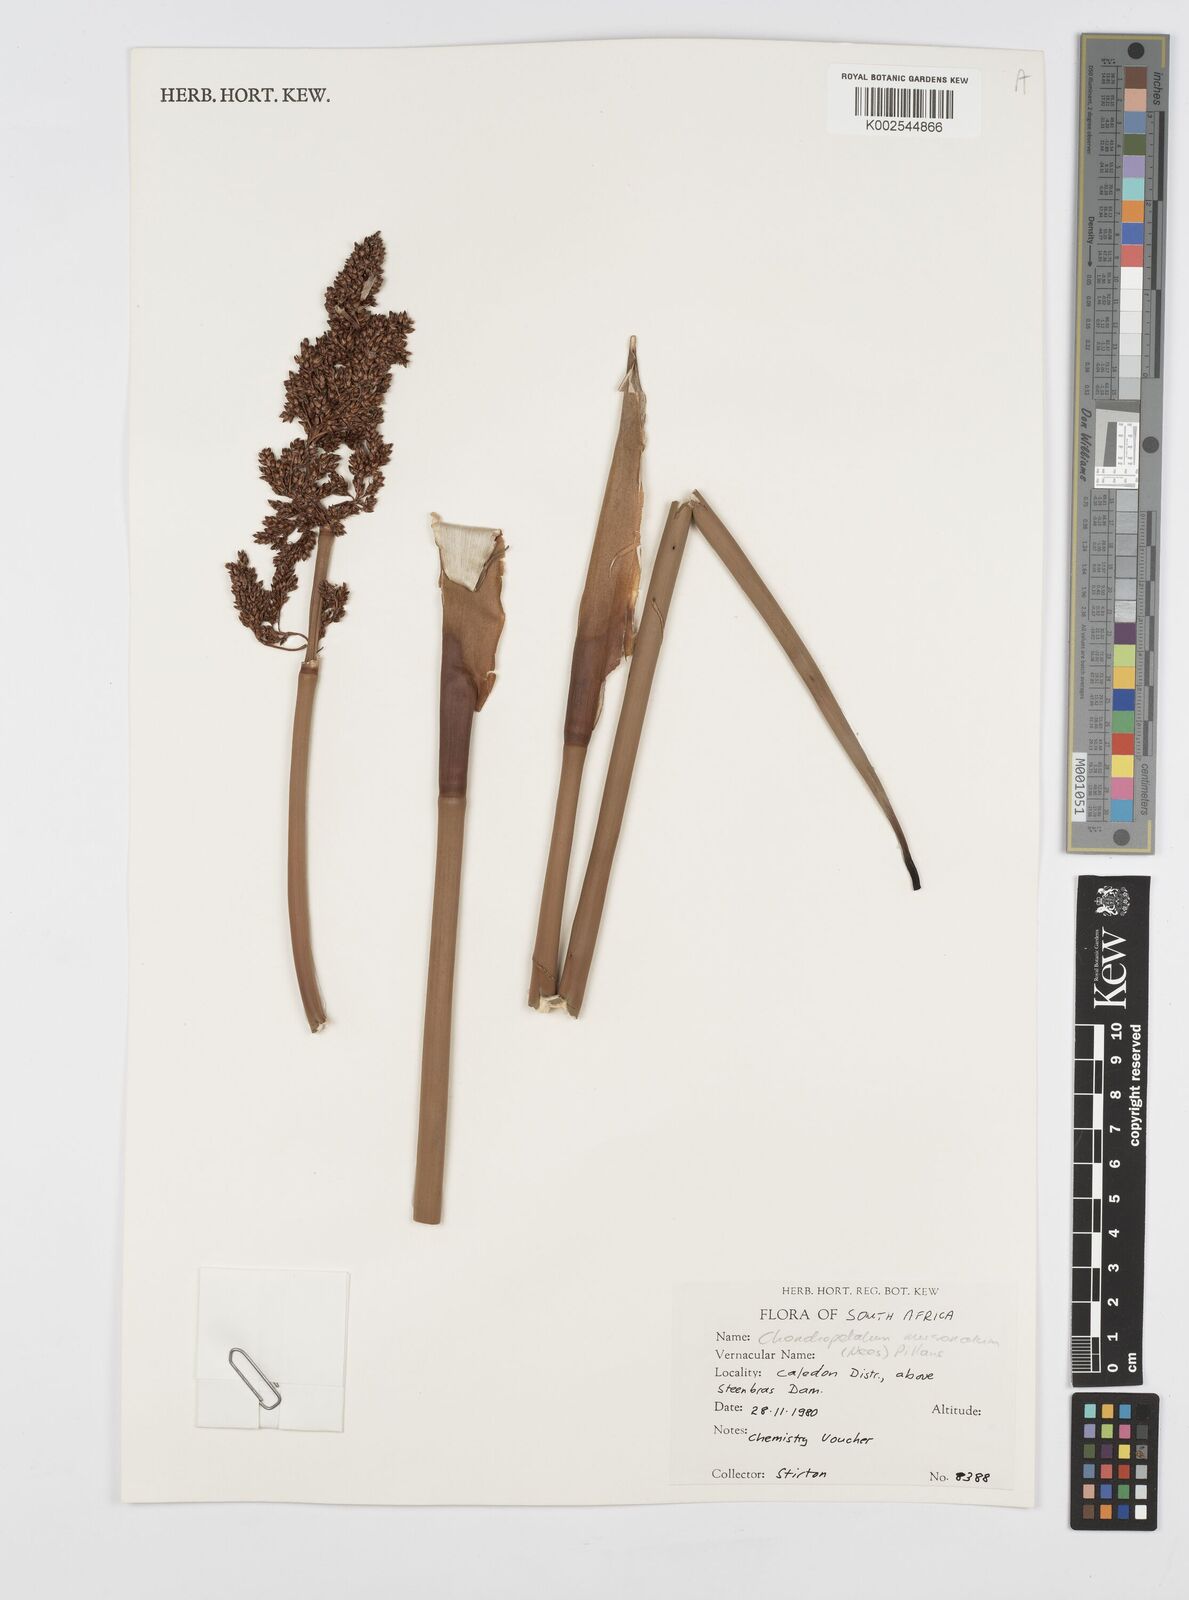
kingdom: Plantae
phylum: Tracheophyta
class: Liliopsida
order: Poales
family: Restionaceae
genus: Elegia
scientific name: Elegia mucronata
